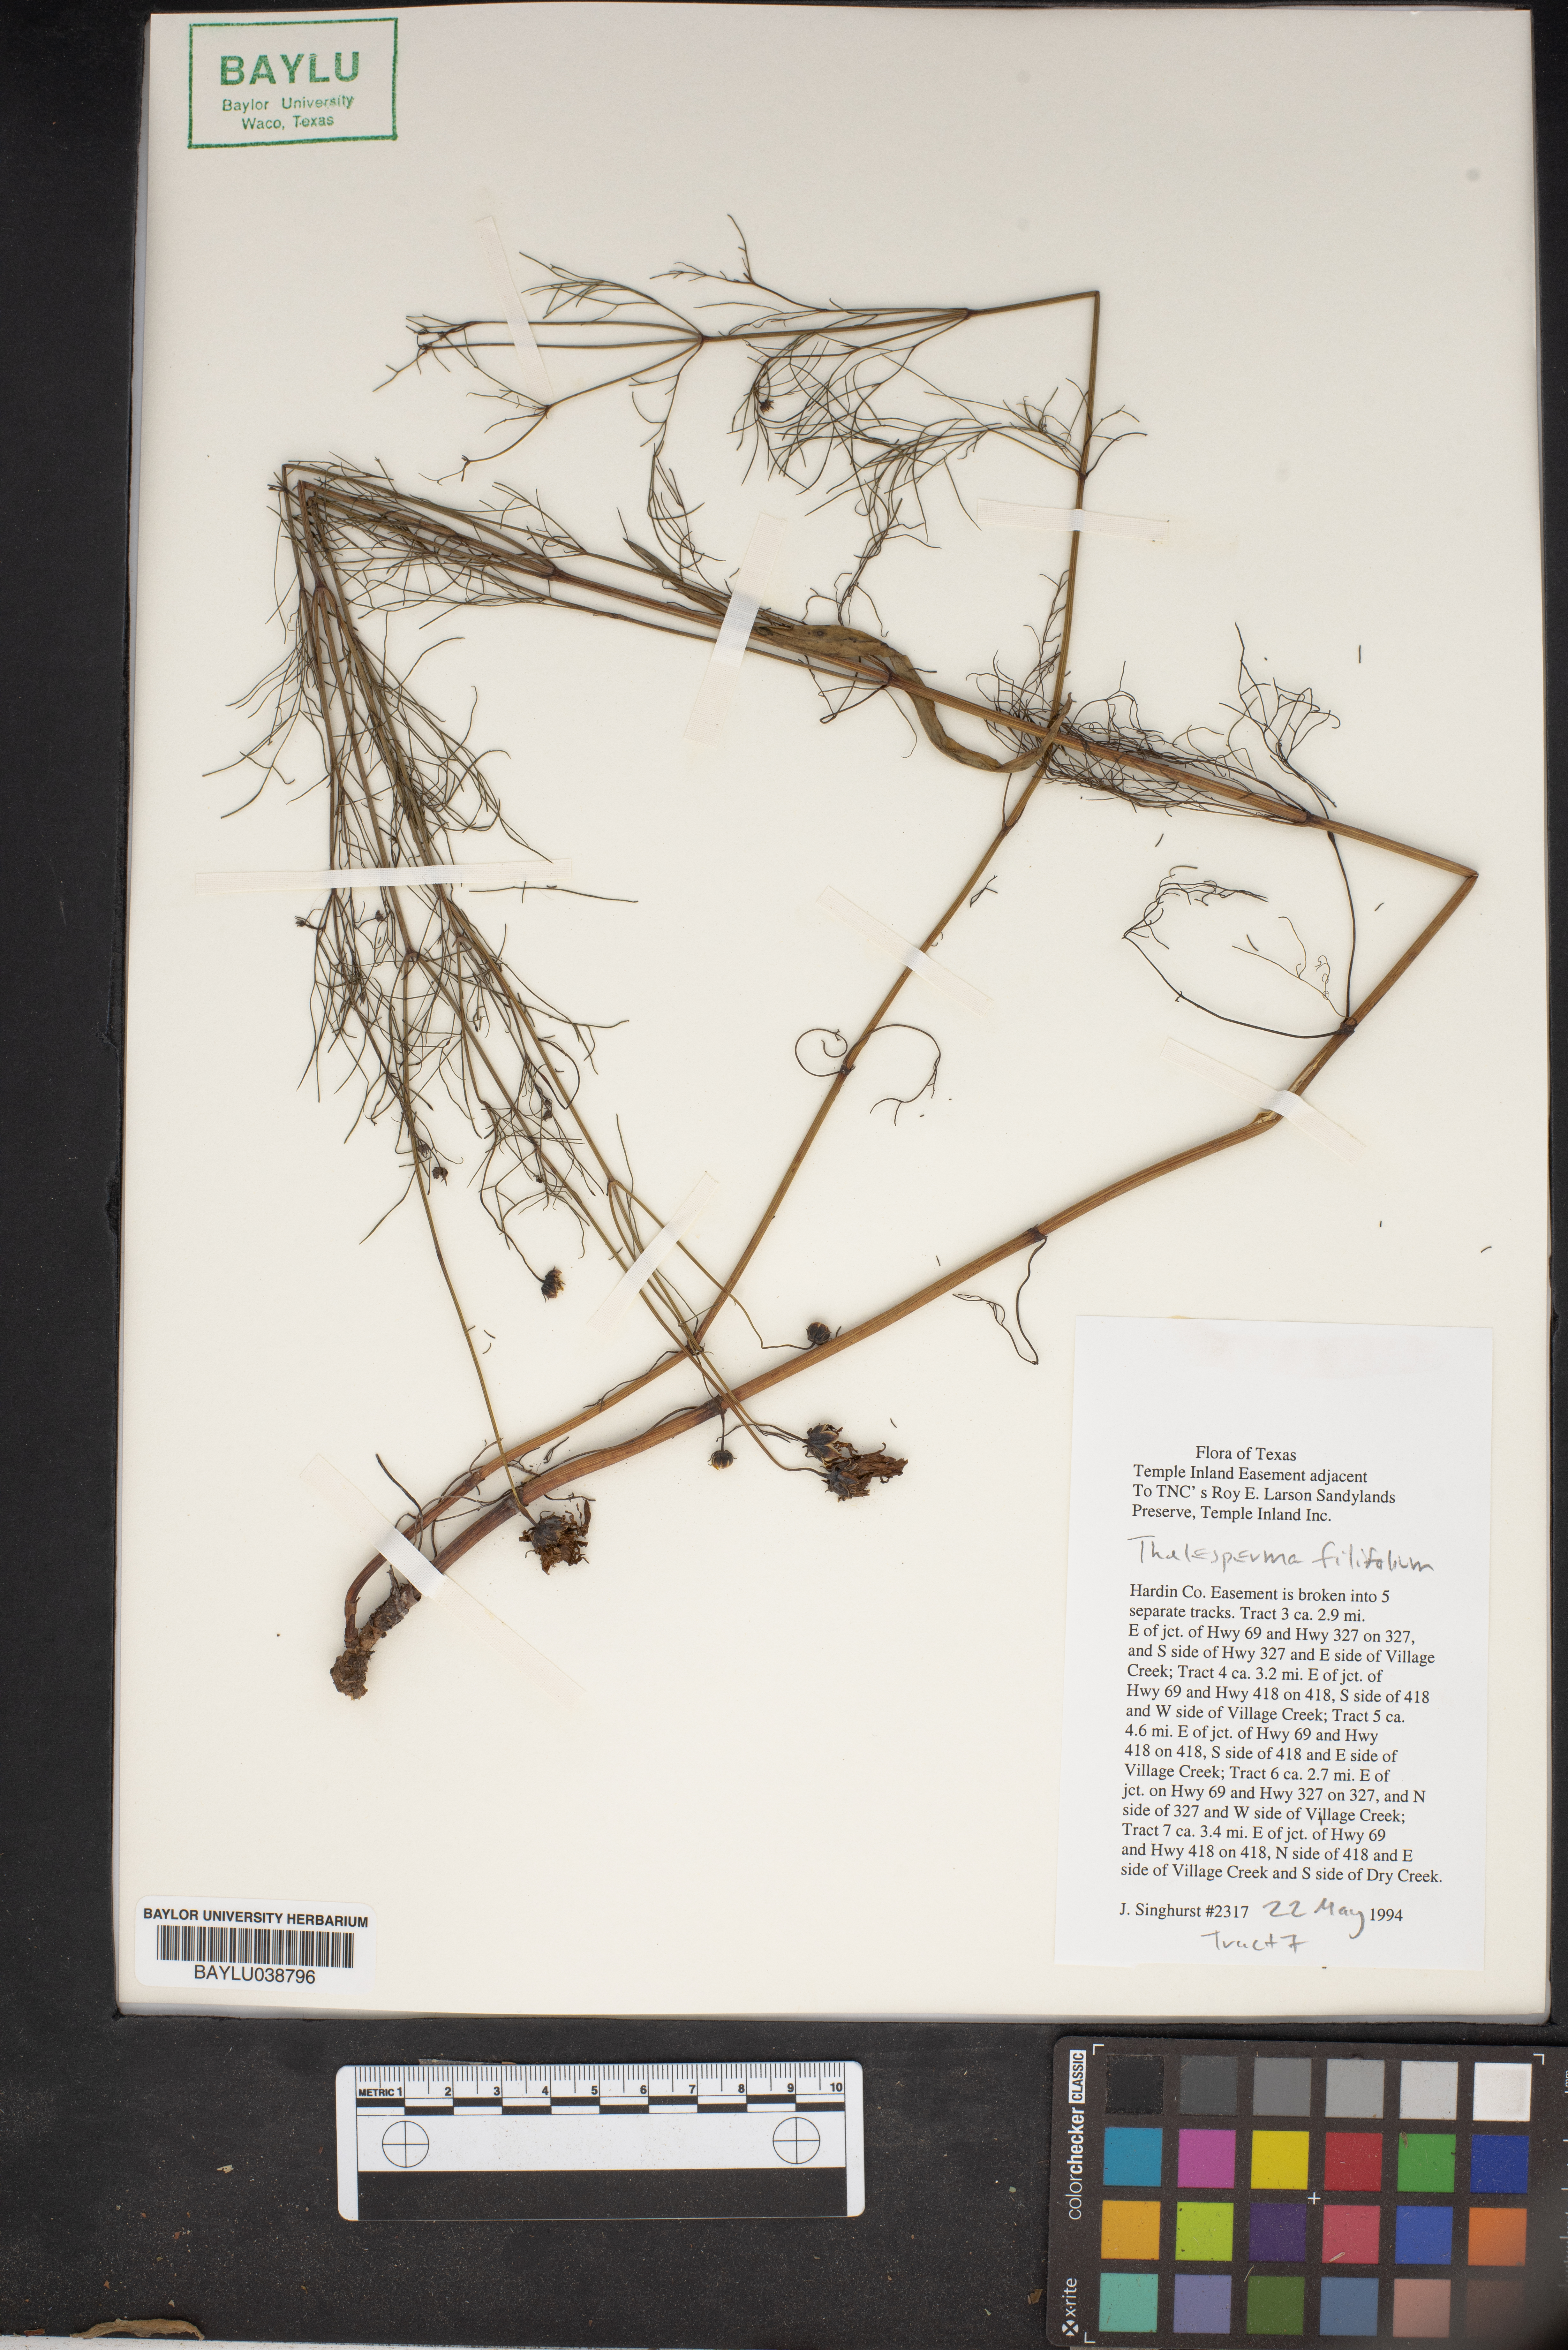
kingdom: Plantae
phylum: Tracheophyta
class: Magnoliopsida
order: Asterales
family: Asteraceae
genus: Thelesperma
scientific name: Thelesperma filifolium
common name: Stiff greenthread
